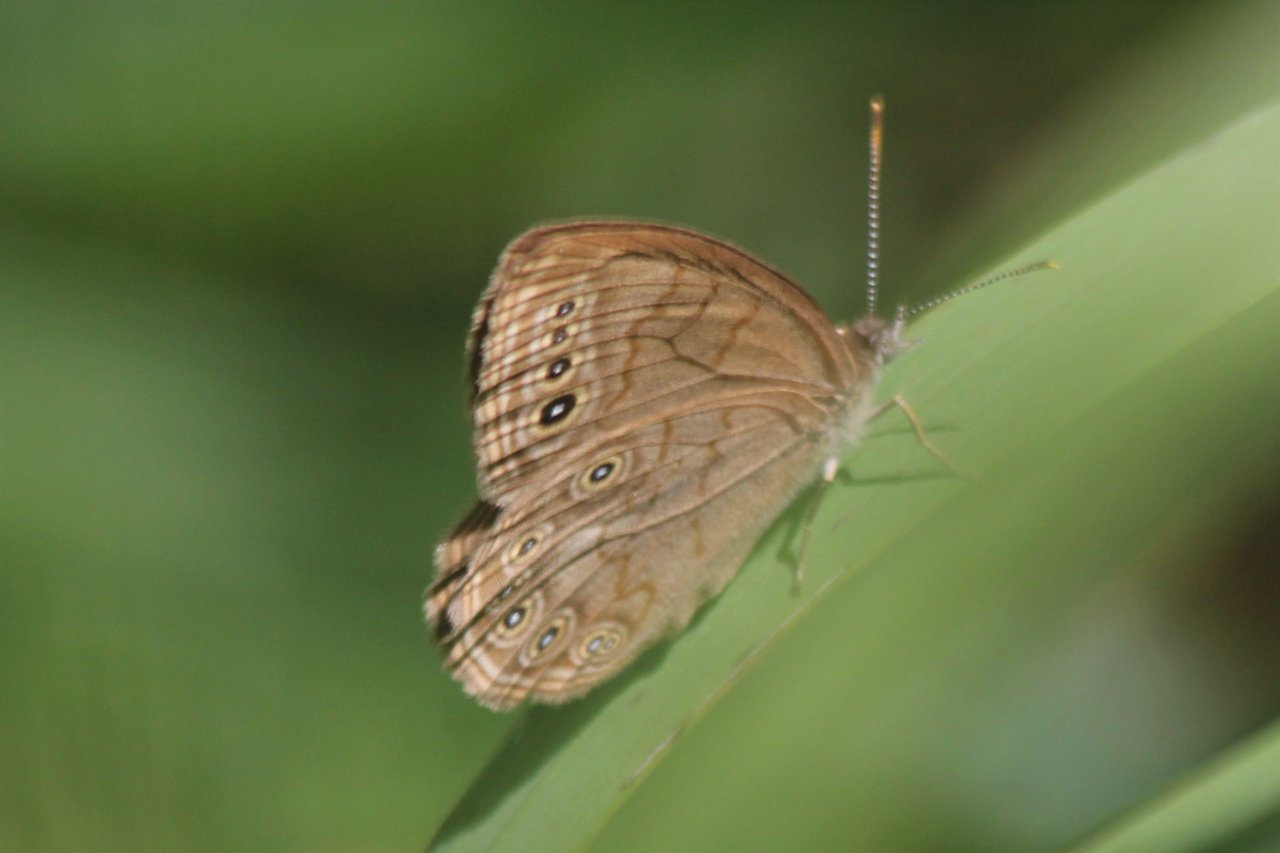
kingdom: Animalia
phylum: Arthropoda
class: Insecta
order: Lepidoptera
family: Nymphalidae
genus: Lethe
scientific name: Lethe eurydice
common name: Eyed Brown
